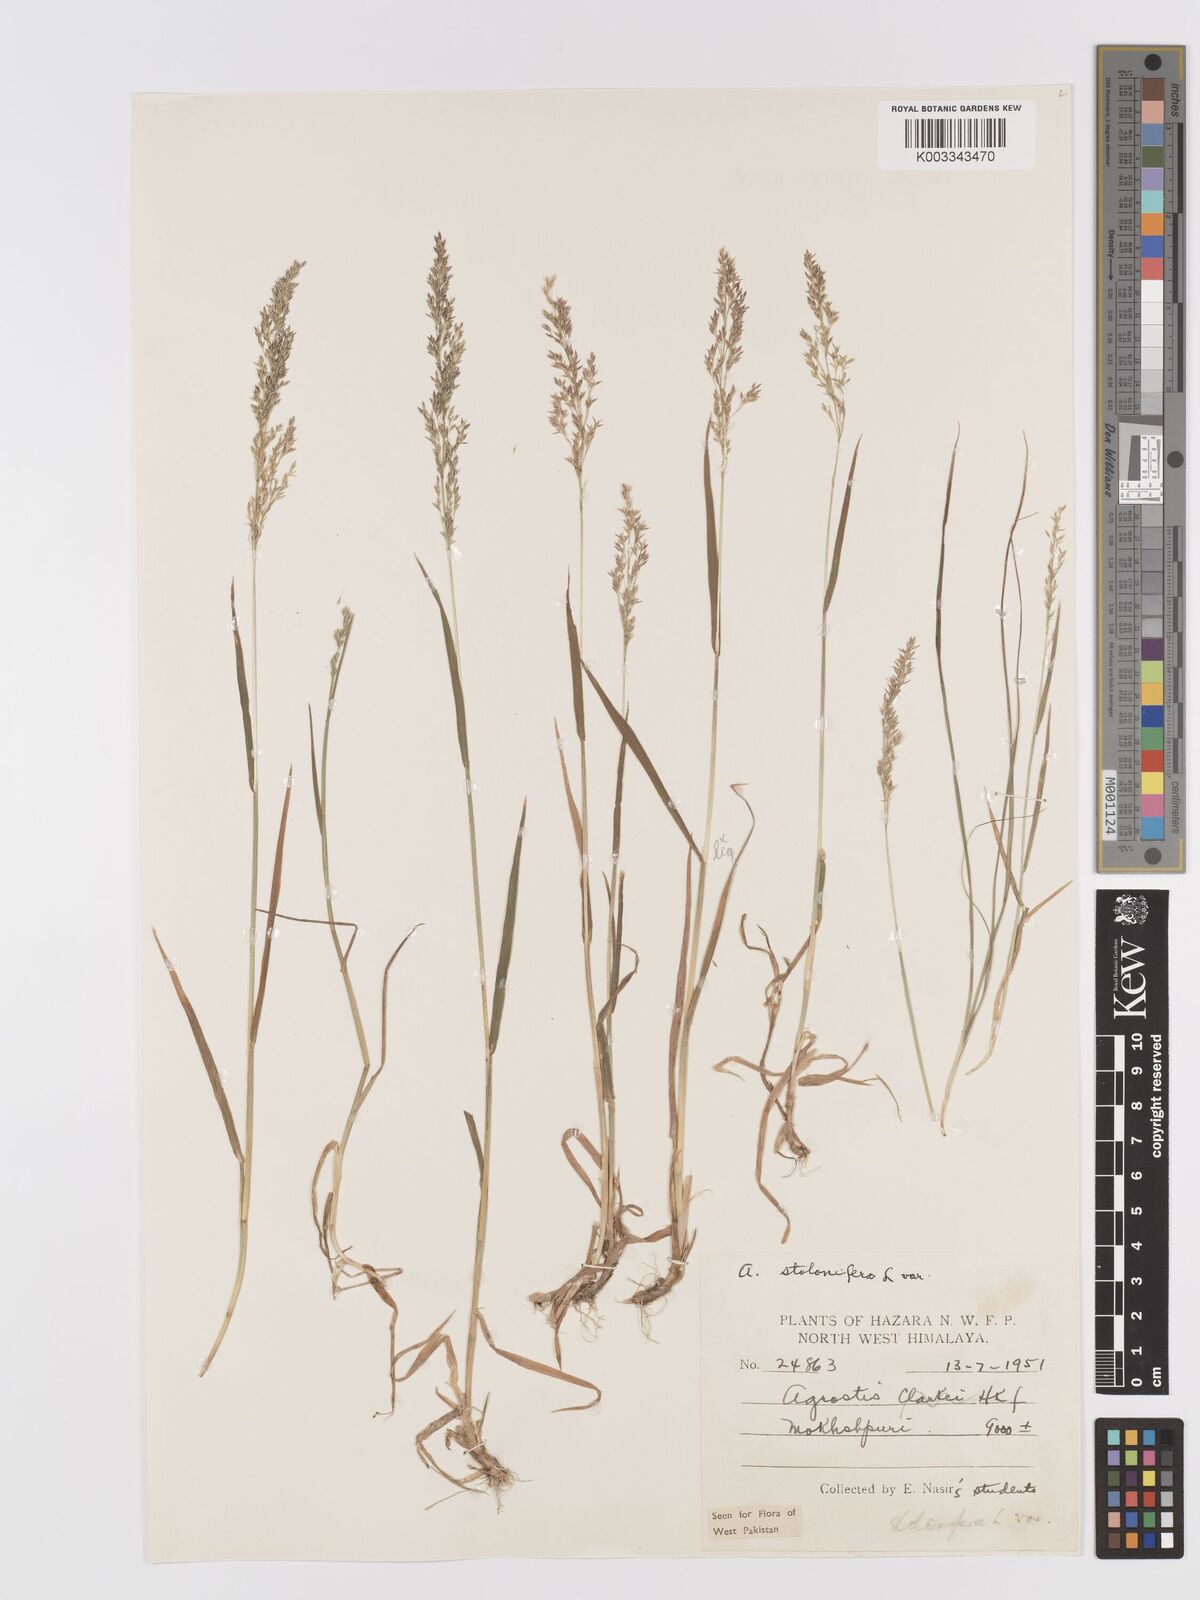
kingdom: Plantae
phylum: Tracheophyta
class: Liliopsida
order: Poales
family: Poaceae
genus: Agrostis
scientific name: Agrostis stolonifera
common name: Creeping bentgrass
